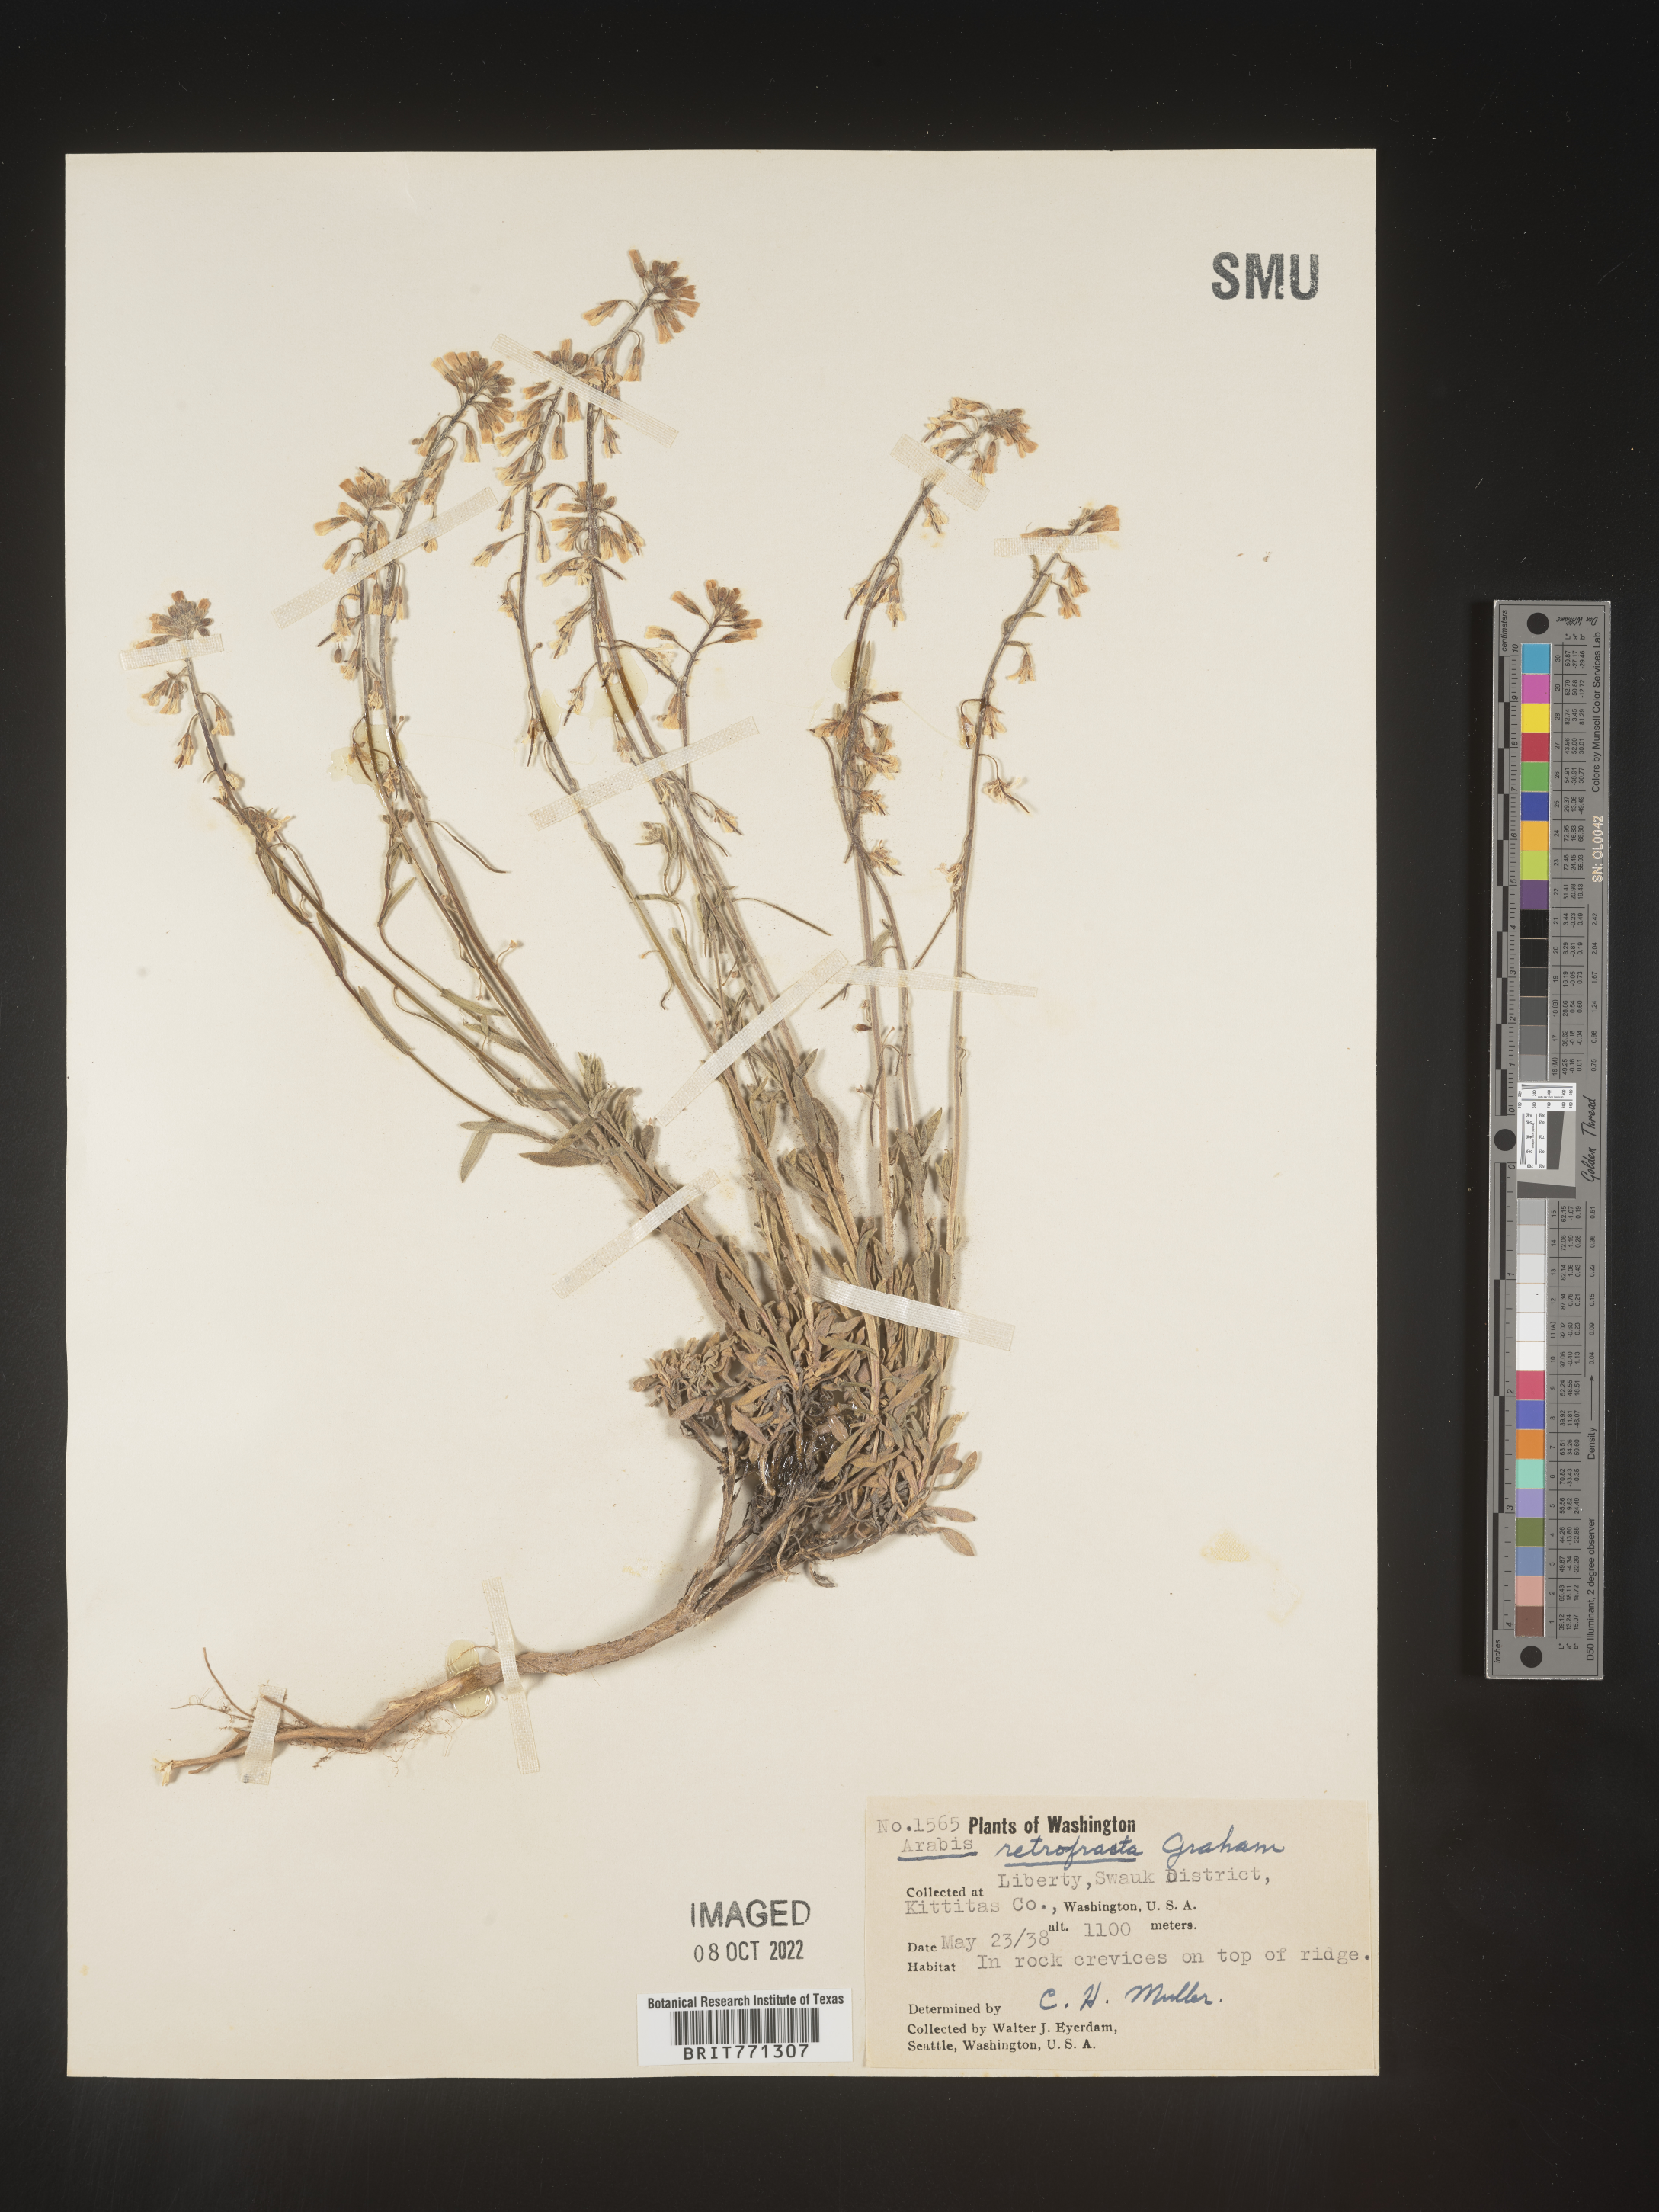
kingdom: Plantae
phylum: Tracheophyta
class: Magnoliopsida
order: Brassicales
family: Brassicaceae
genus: Arabis
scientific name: Arabis
